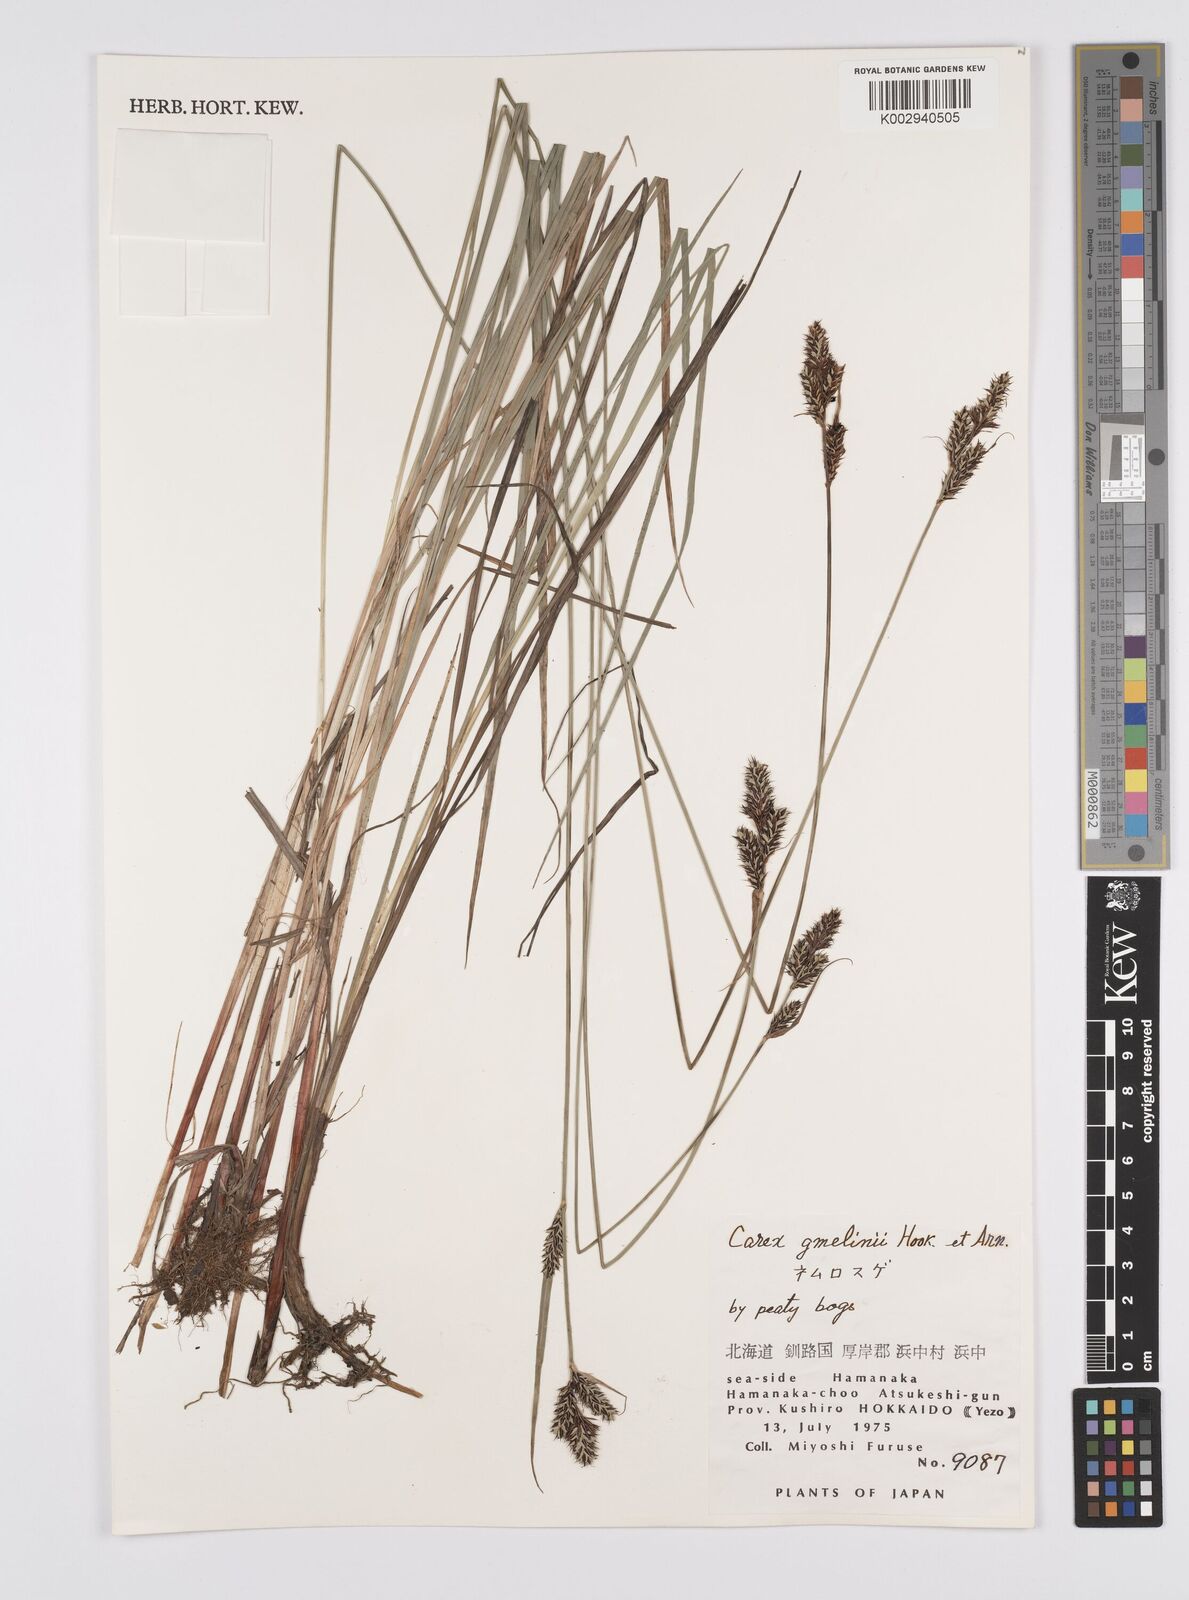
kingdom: Plantae
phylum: Tracheophyta
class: Liliopsida
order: Poales
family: Cyperaceae
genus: Carex
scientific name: Carex gmelinii
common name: Gmelin's sedge
